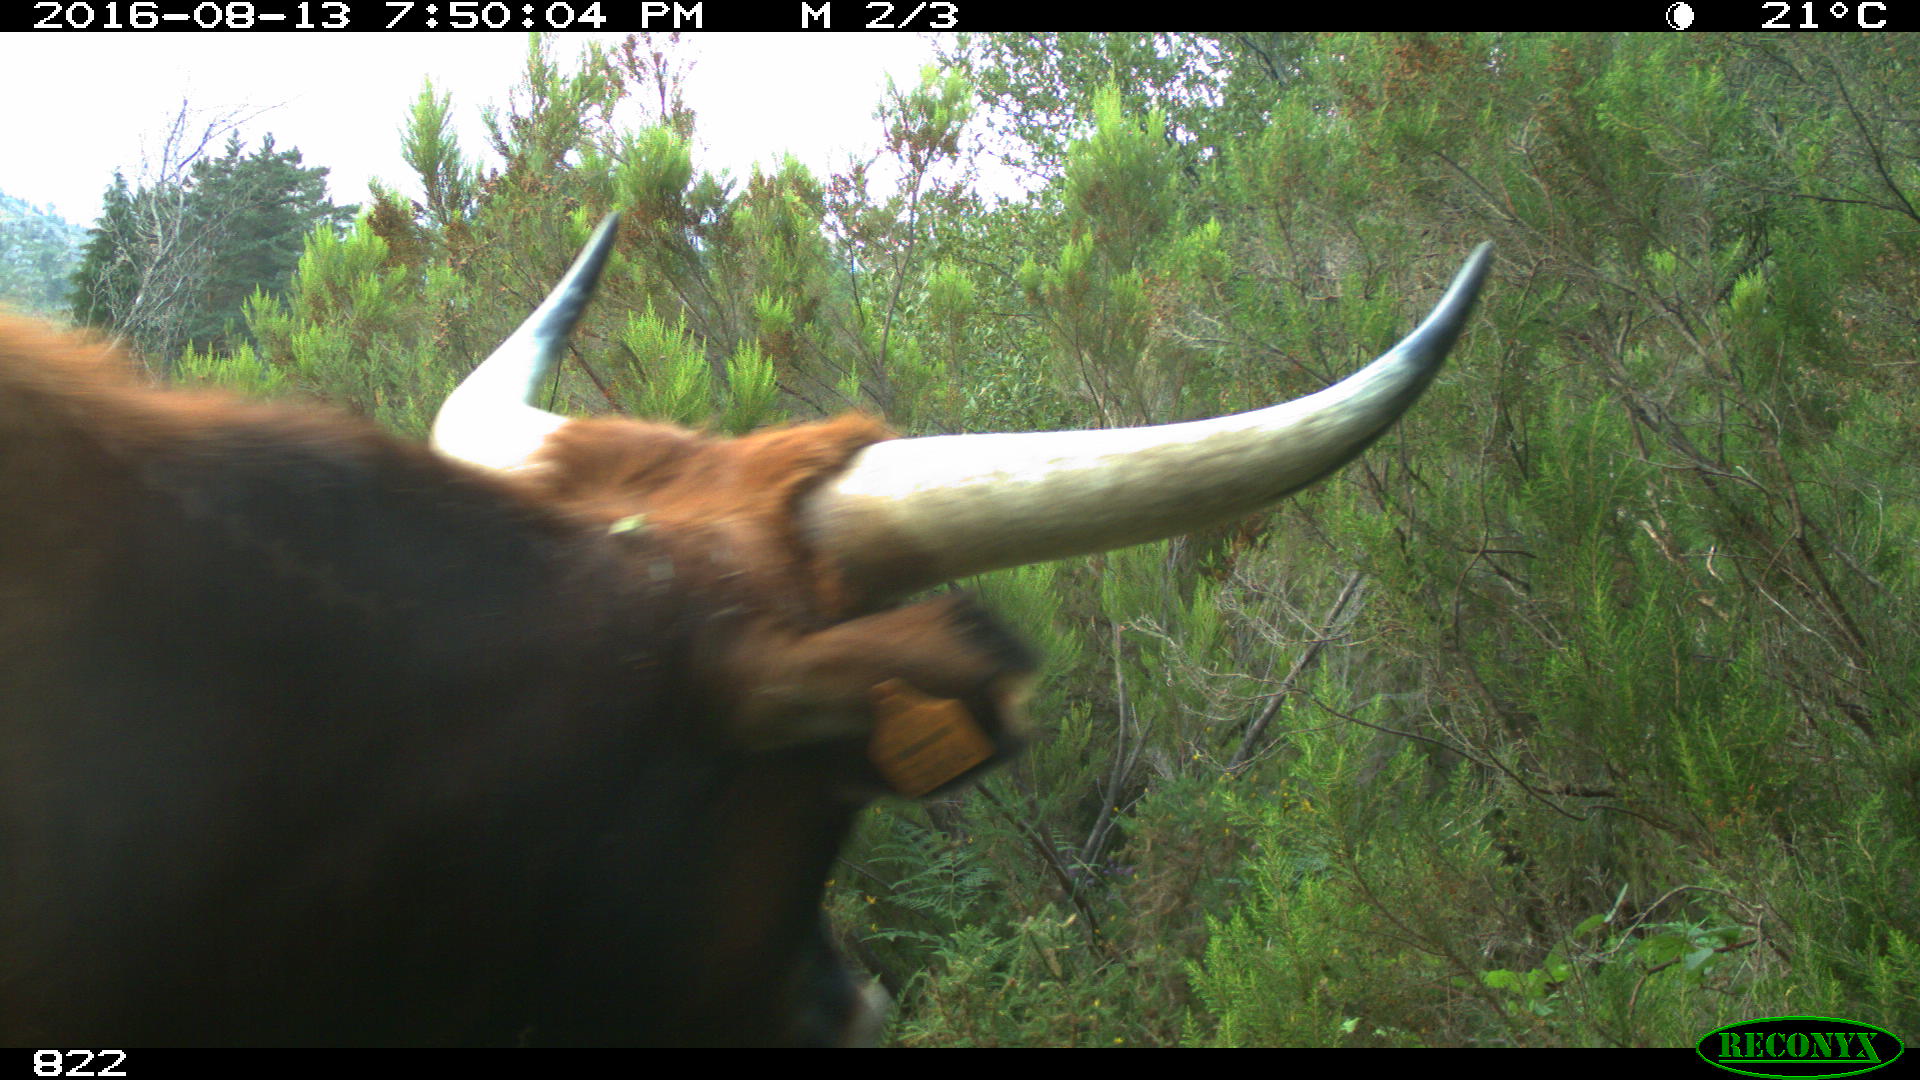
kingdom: Animalia
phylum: Chordata
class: Mammalia
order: Artiodactyla
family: Bovidae
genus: Bos
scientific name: Bos taurus
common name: Domesticated cattle
